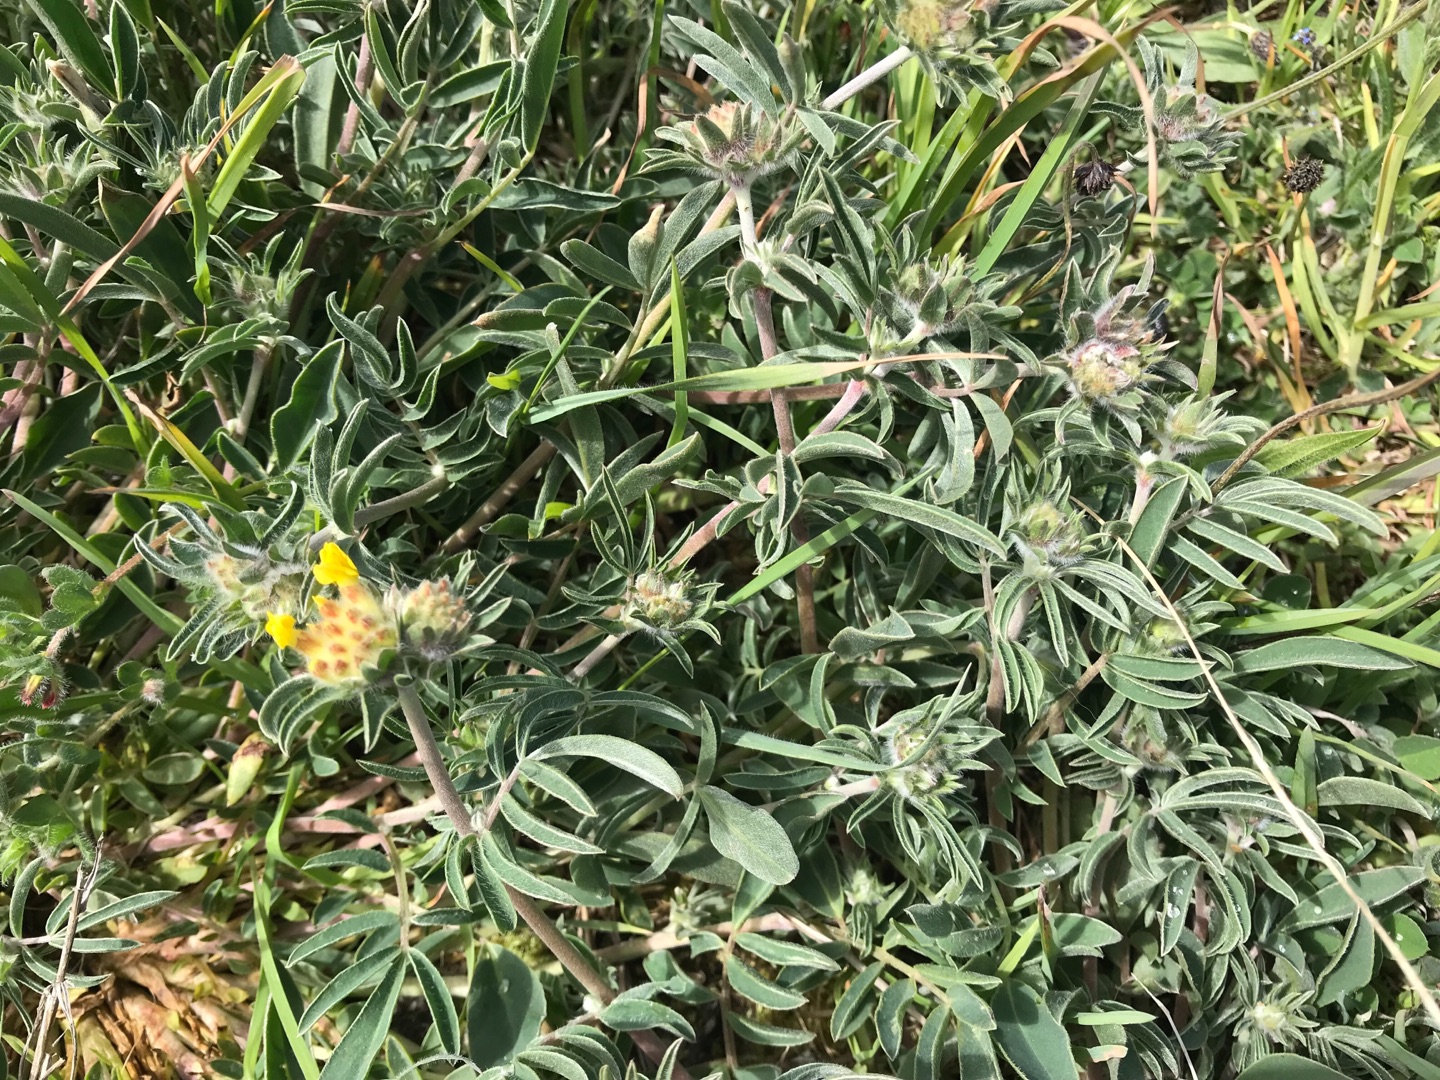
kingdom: Plantae
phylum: Tracheophyta
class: Magnoliopsida
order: Fabales
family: Fabaceae
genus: Anthyllis
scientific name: Anthyllis vulneraria
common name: Rundbælg
